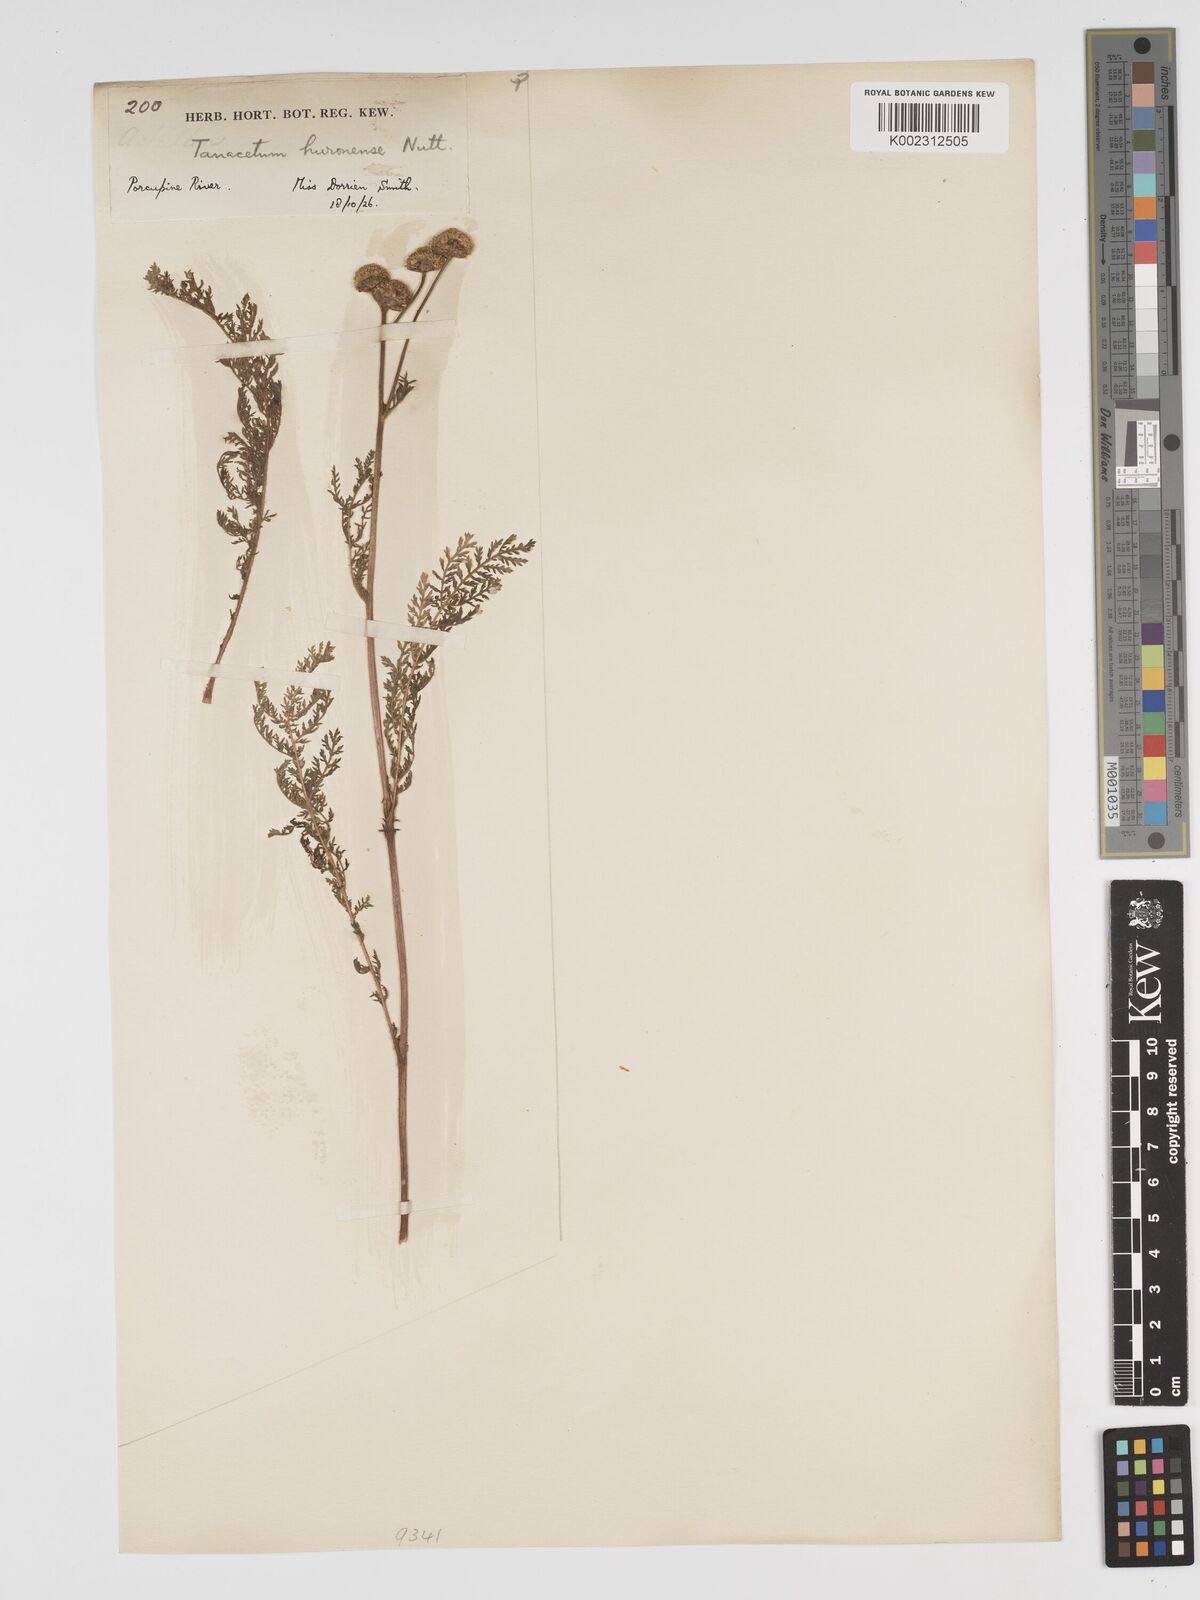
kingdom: Plantae
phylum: Tracheophyta
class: Magnoliopsida
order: Asterales
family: Asteraceae
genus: Tanacetum
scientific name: Tanacetum bipinnatum
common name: Dwarf tansy
